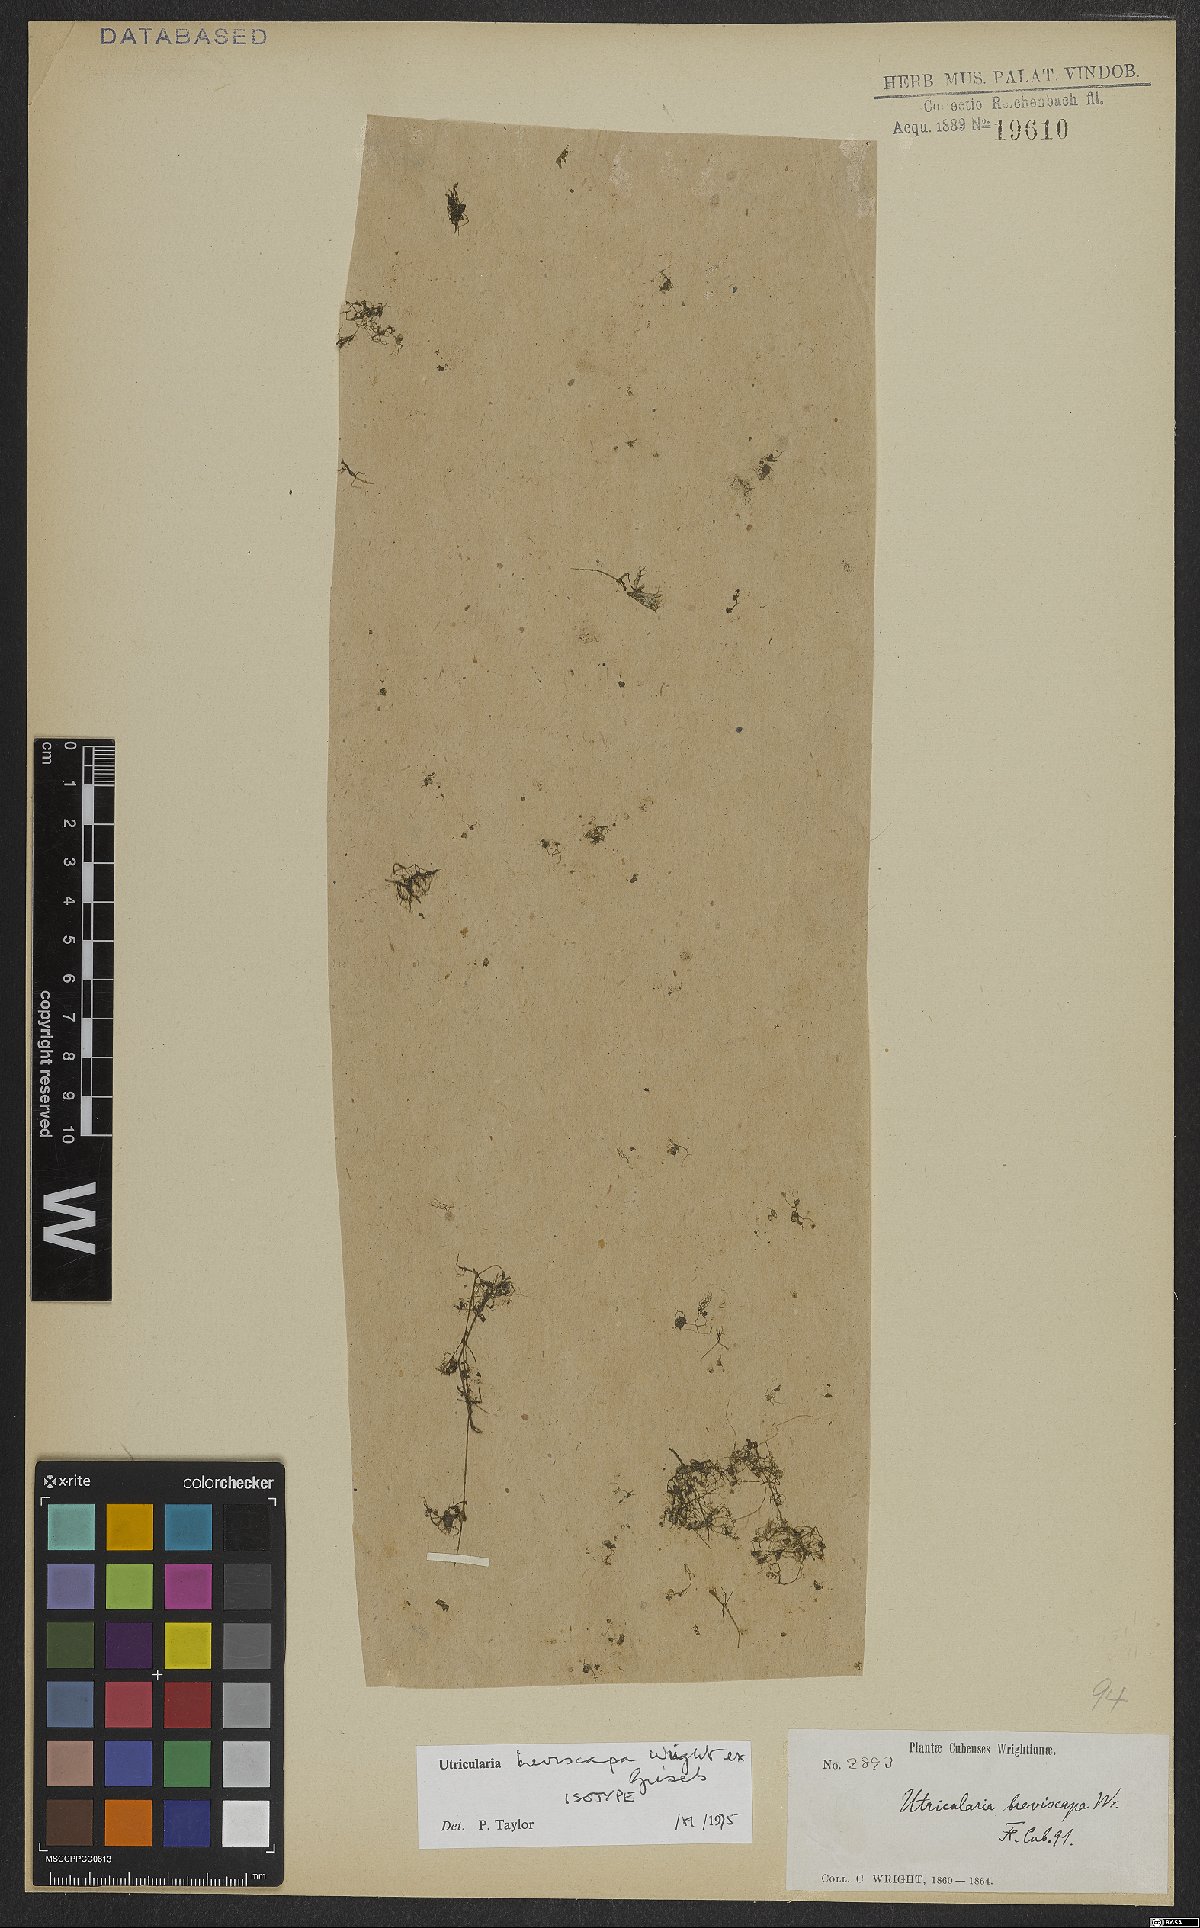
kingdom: Plantae
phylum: Tracheophyta
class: Magnoliopsida
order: Lamiales
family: Lentibulariaceae
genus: Utricularia
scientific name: Utricularia breviscapa
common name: Bladderwort
